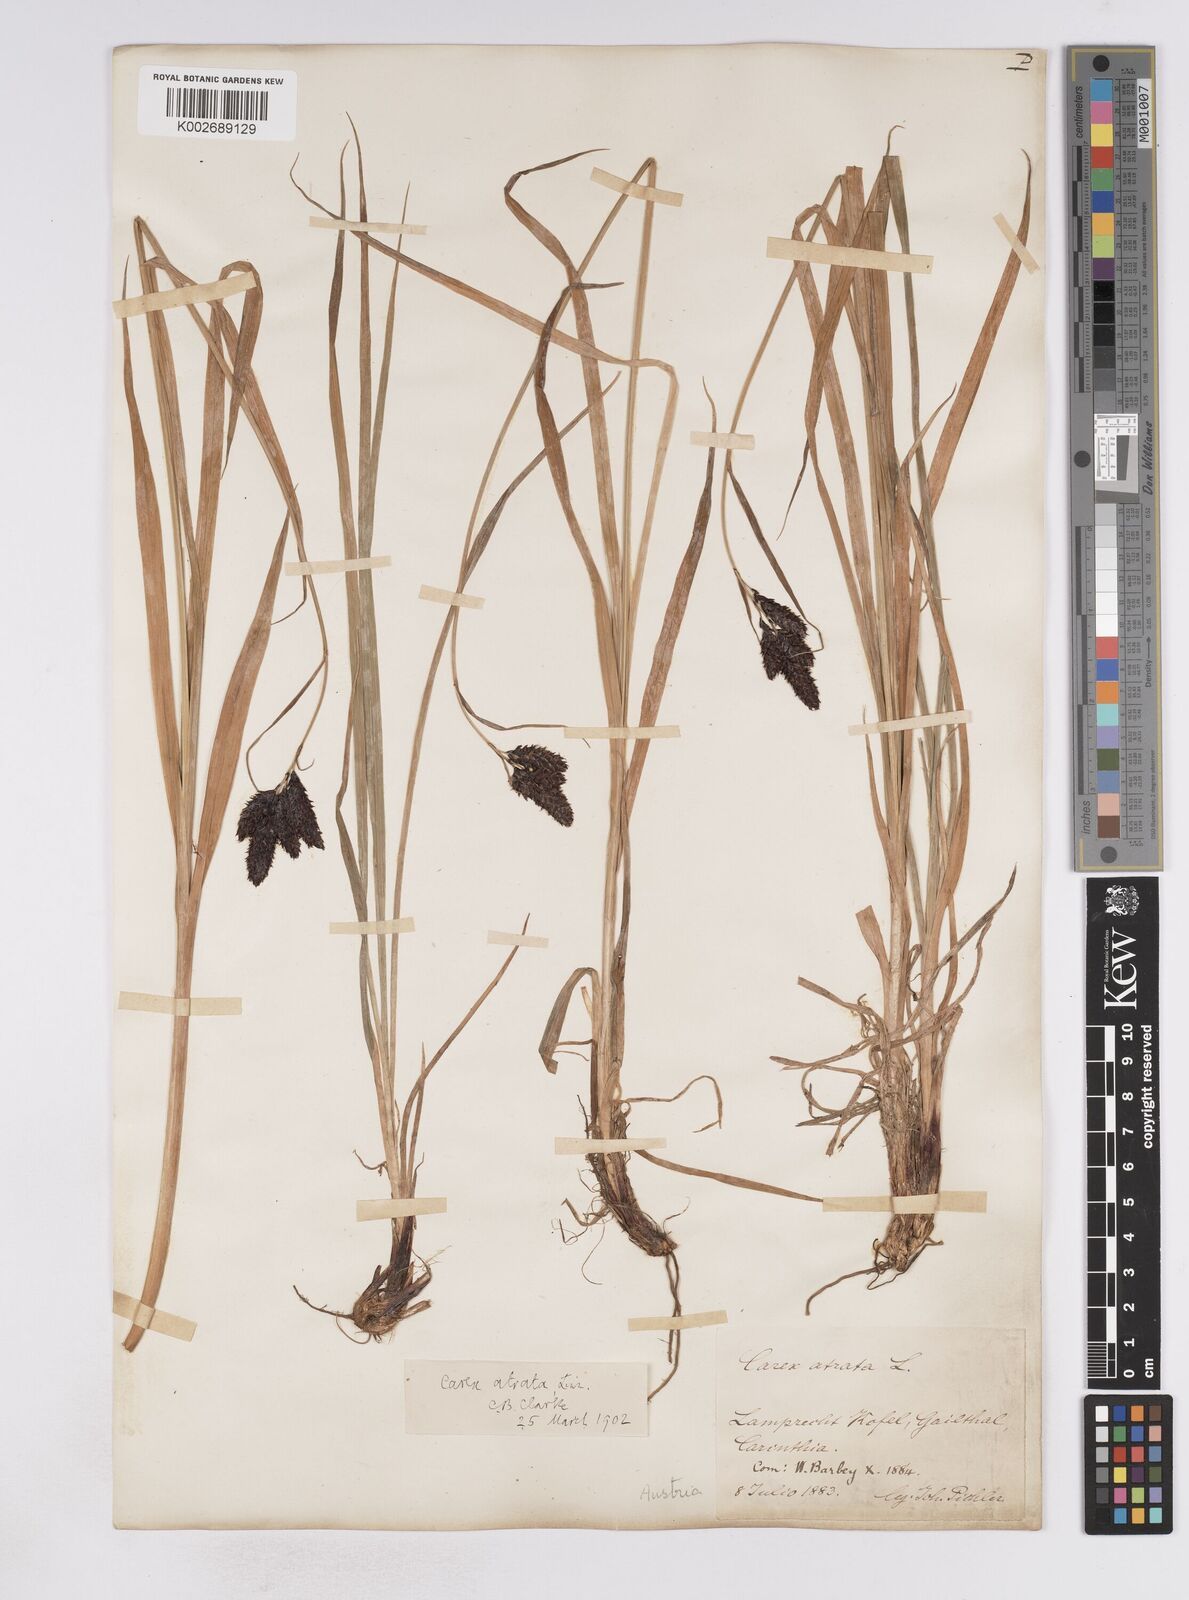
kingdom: Plantae
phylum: Tracheophyta
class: Liliopsida
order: Poales
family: Cyperaceae
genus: Carex
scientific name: Carex aterrima
